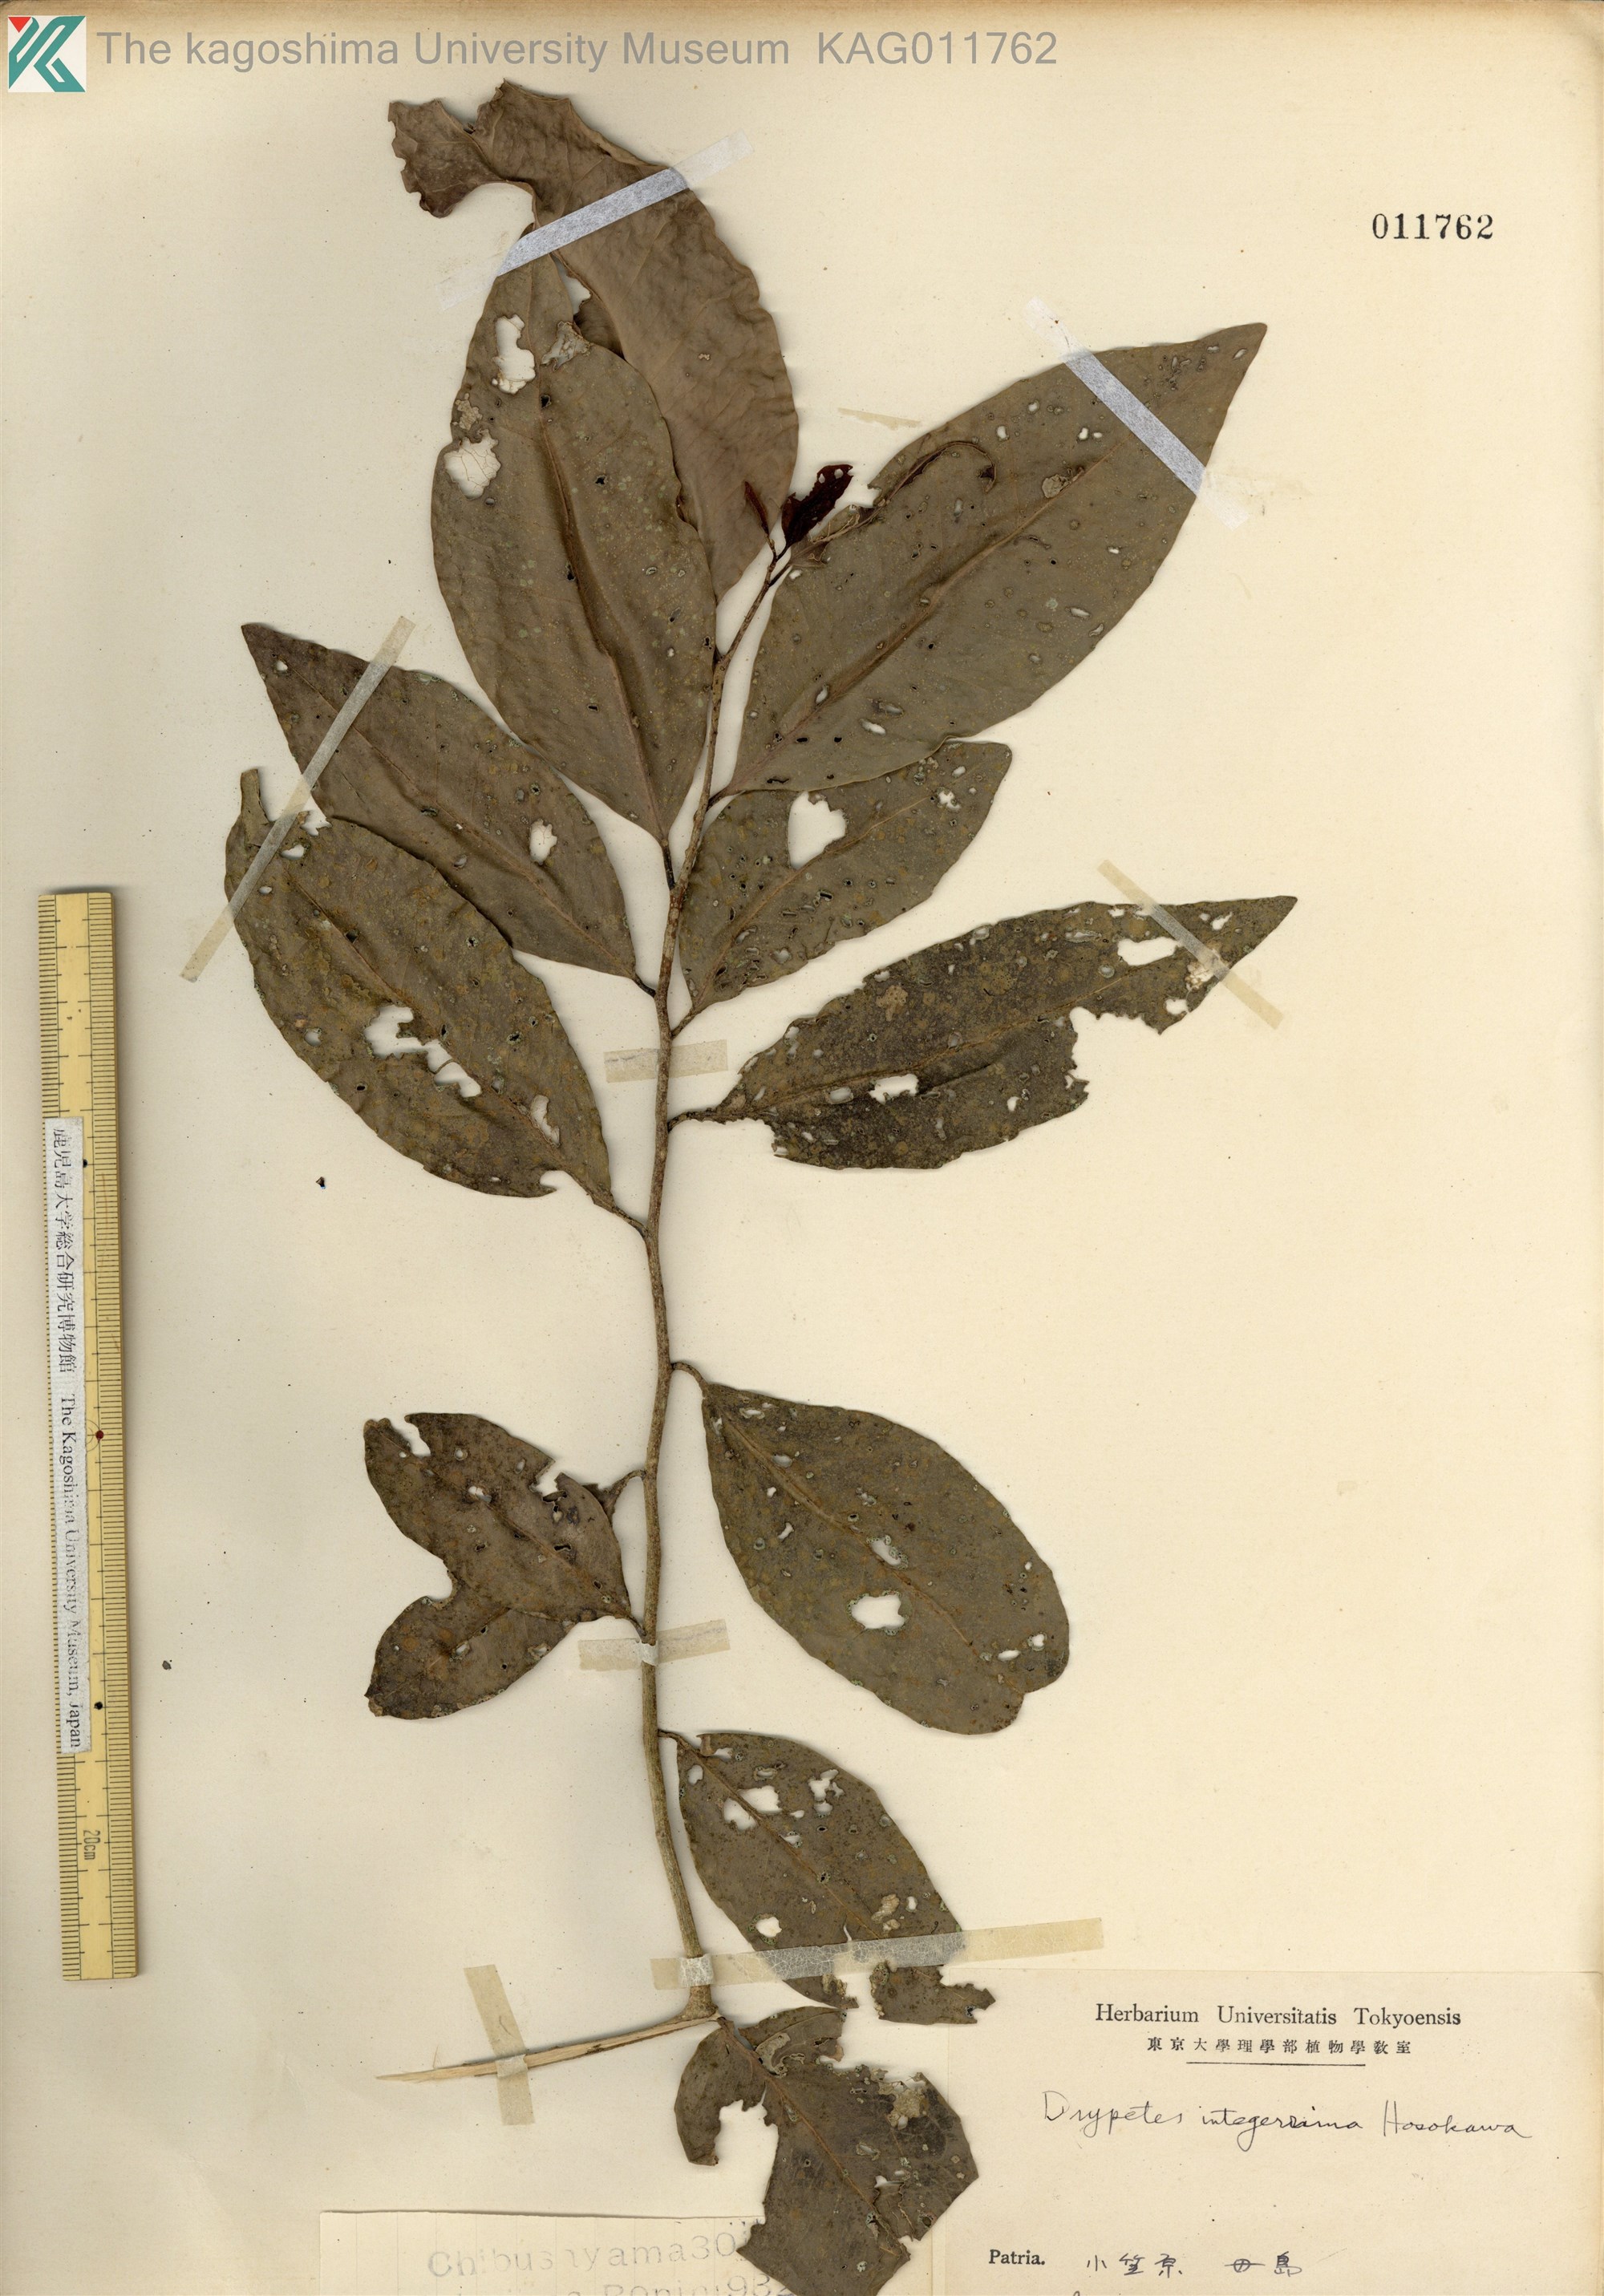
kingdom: Plantae
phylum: Tracheophyta
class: Magnoliopsida
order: Malpighiales
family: Putranjivaceae
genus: Drypetes
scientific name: Drypetes integerrima
